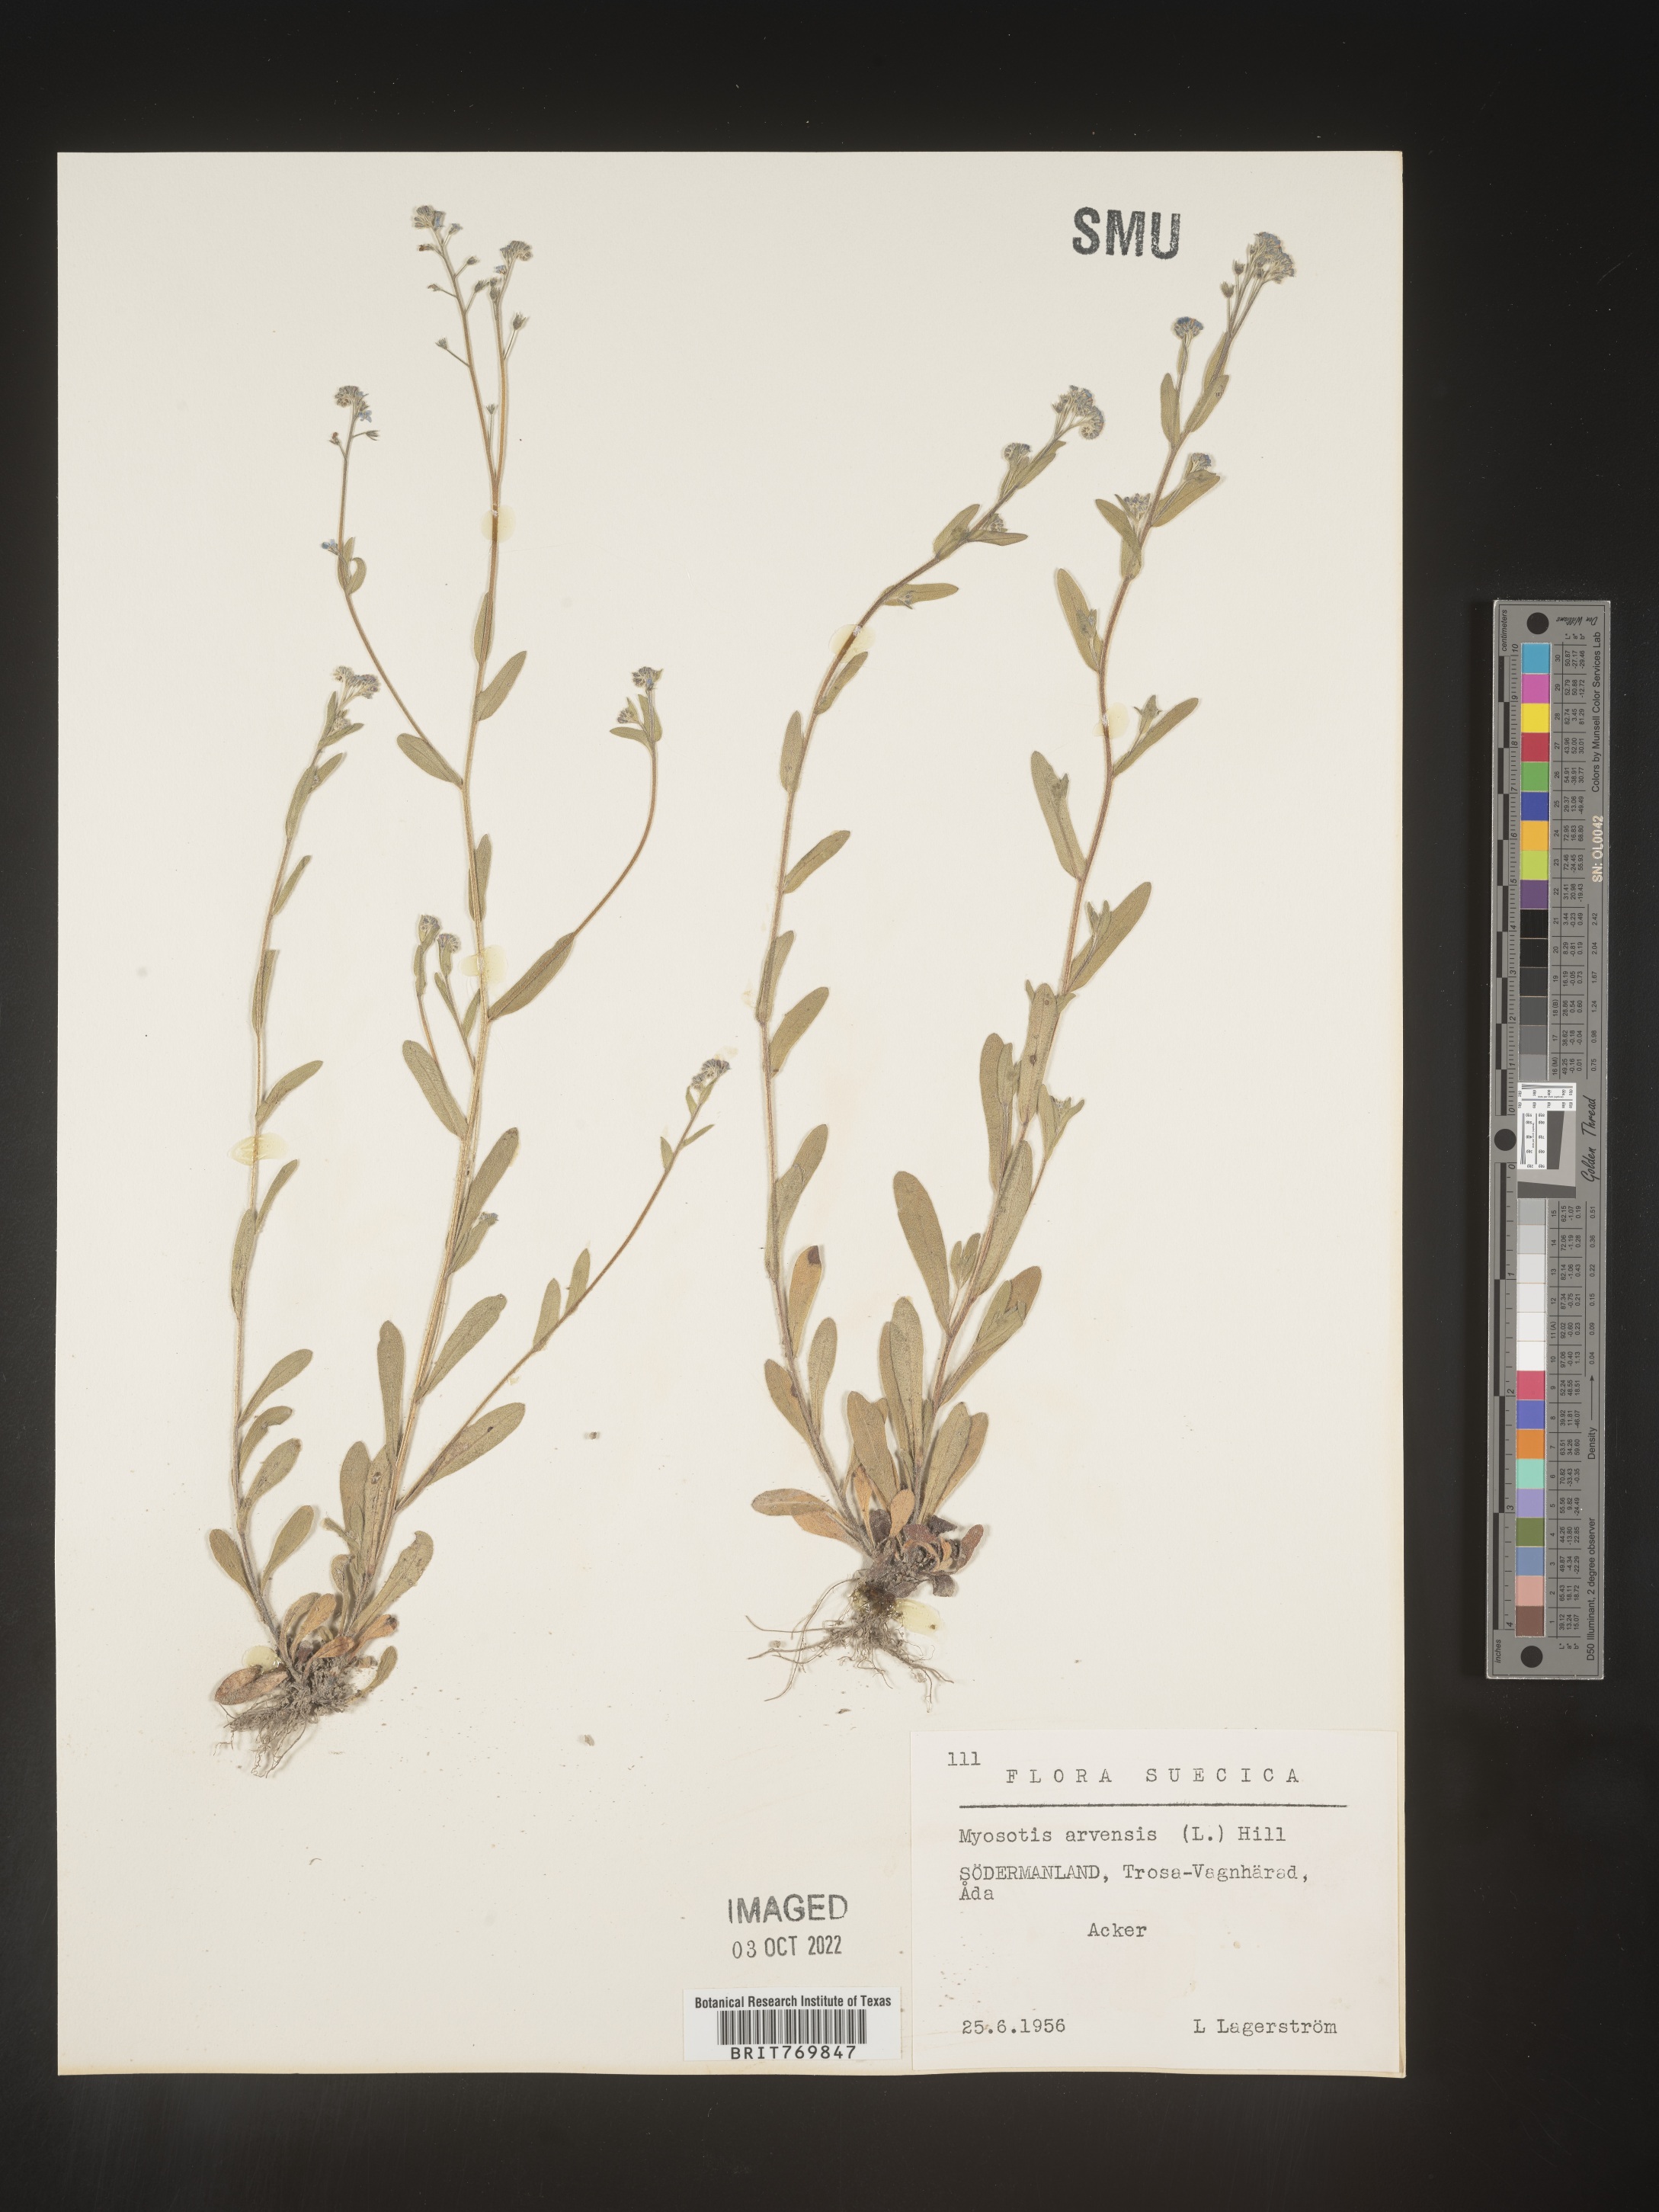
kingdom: Plantae
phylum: Tracheophyta
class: Magnoliopsida
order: Boraginales
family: Boraginaceae
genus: Myosotis
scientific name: Myosotis
